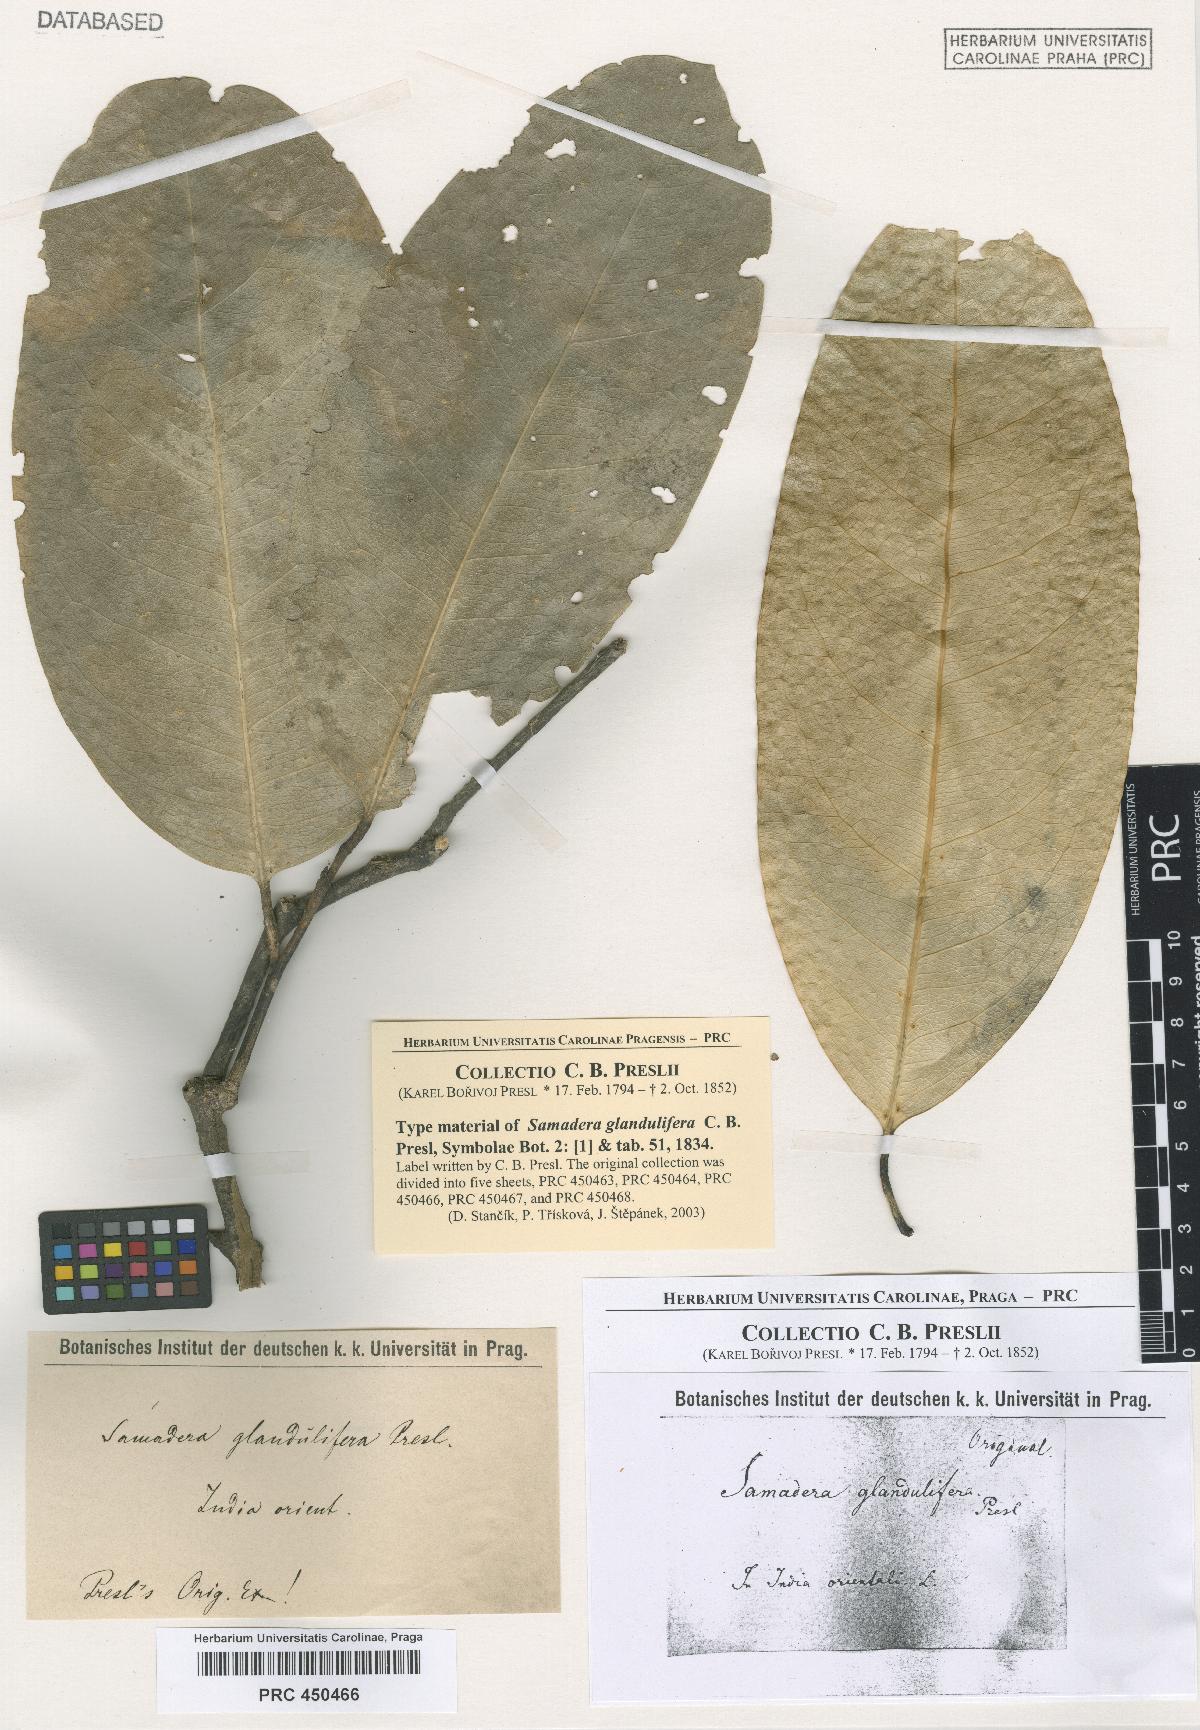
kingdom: Plantae
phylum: Tracheophyta
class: Magnoliopsida
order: Sapindales
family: Simaroubaceae
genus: Samadera
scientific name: Samadera indica
